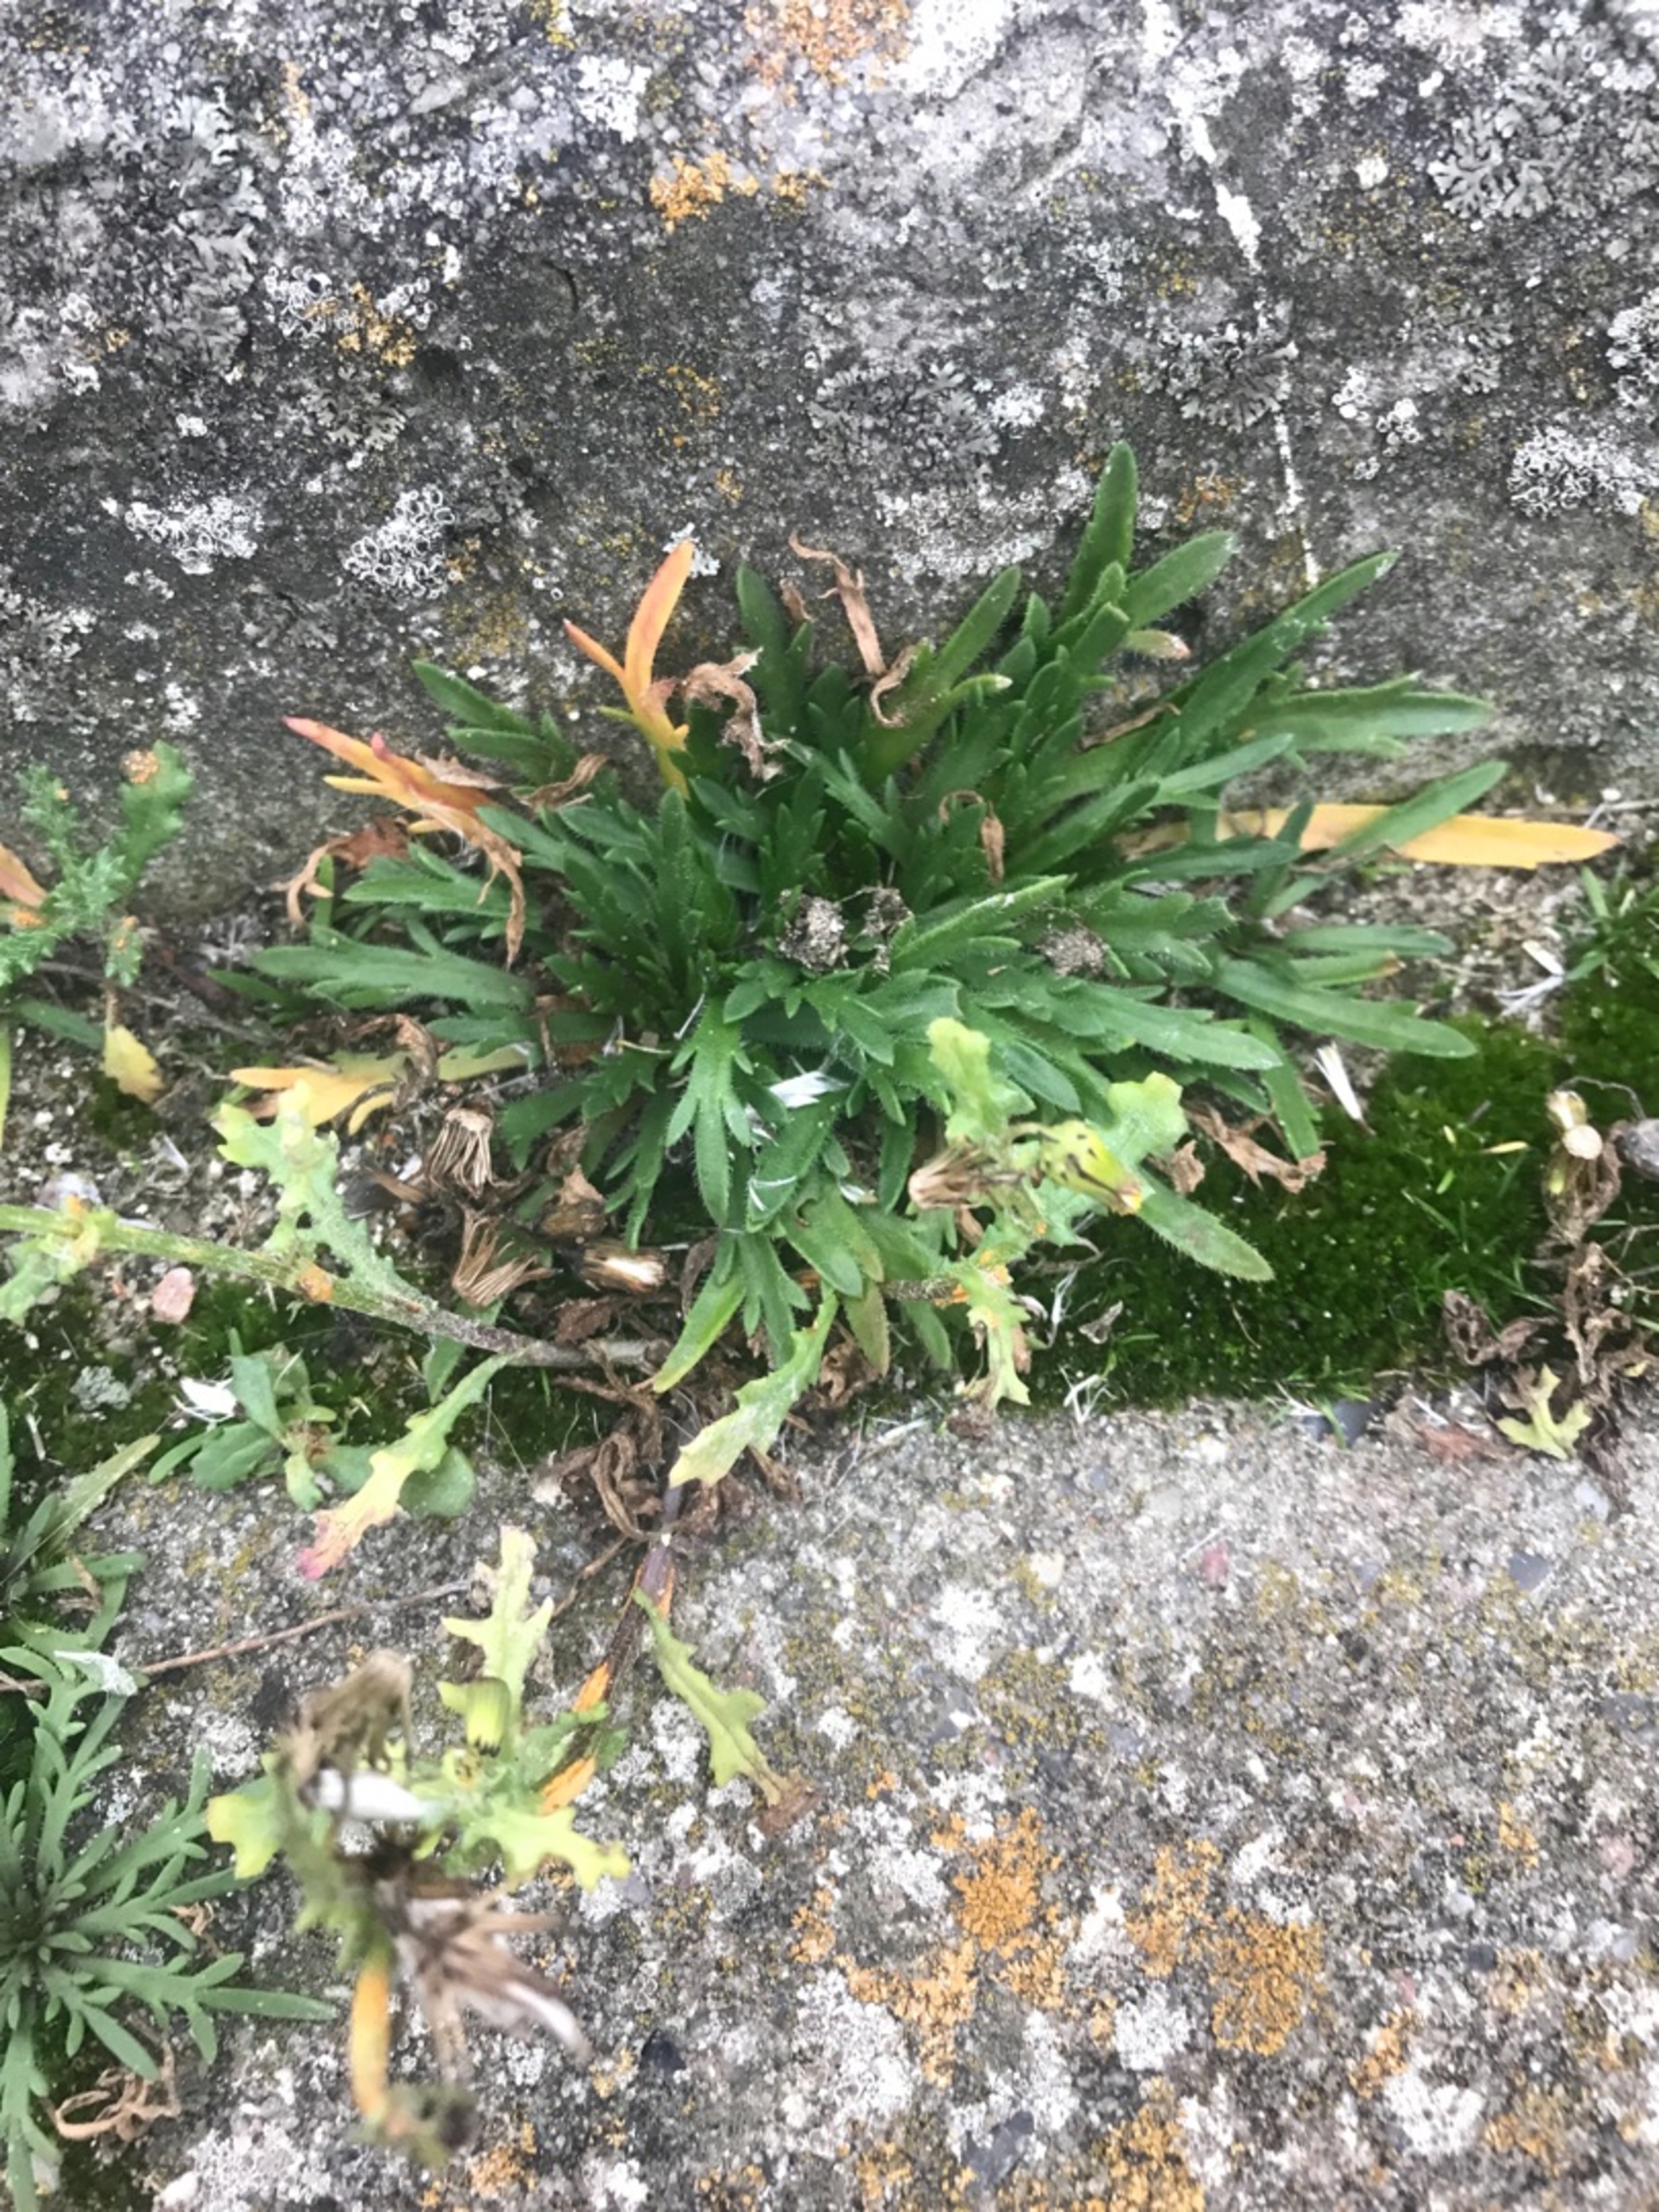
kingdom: Plantae
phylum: Tracheophyta
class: Magnoliopsida
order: Lamiales
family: Plantaginaceae
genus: Plantago
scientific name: Plantago coronopus
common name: Fliget vejbred
